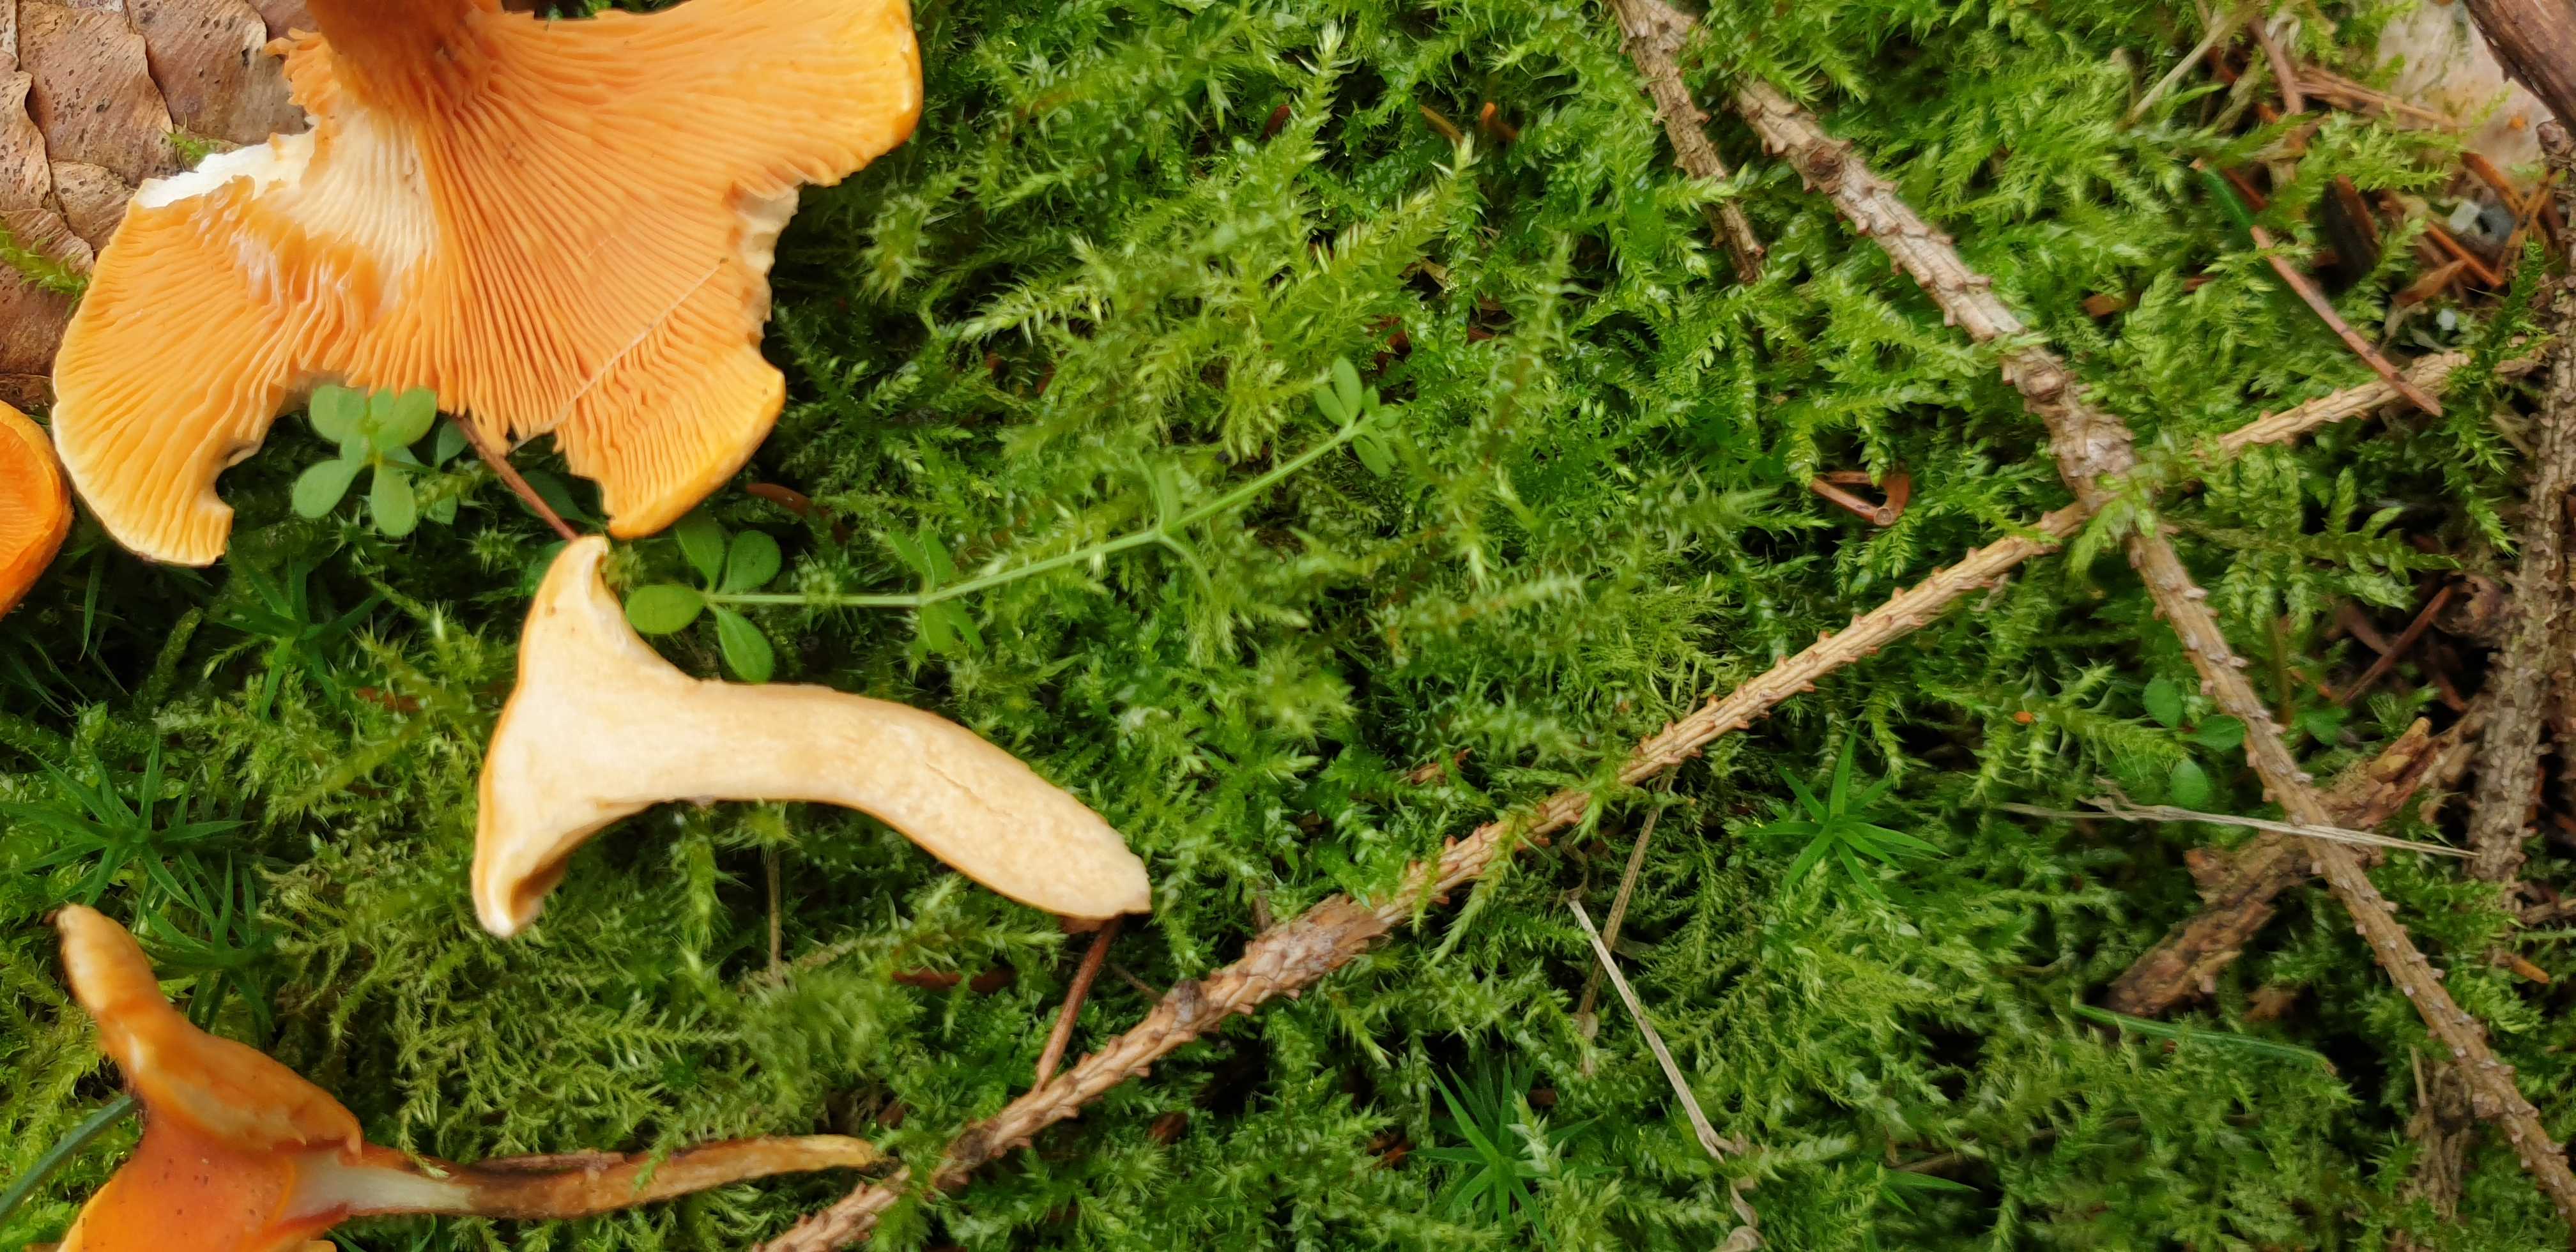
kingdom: Fungi
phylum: Basidiomycota
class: Agaricomycetes
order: Boletales
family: Hygrophoropsidaceae
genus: Hygrophoropsis
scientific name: Hygrophoropsis aurantiaca
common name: almindelig orangekantarel
